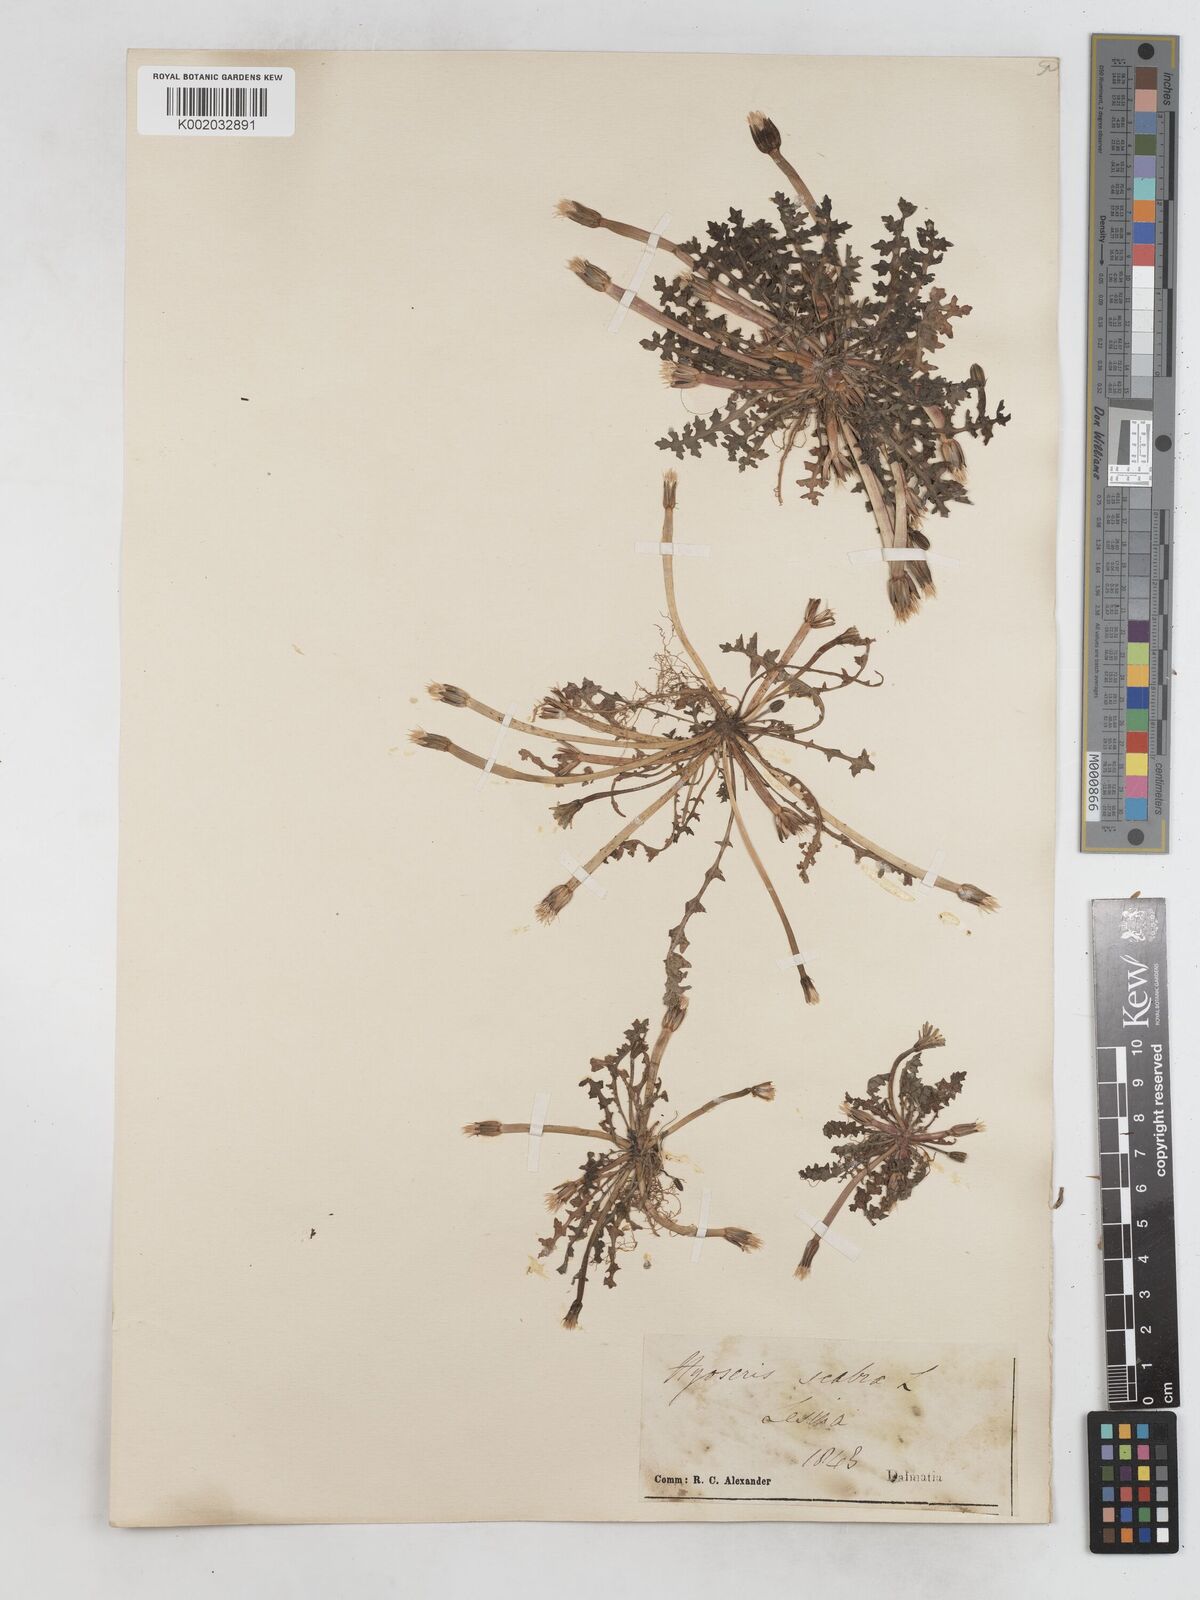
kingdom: Plantae
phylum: Tracheophyta
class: Magnoliopsida
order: Asterales
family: Asteraceae
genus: Hyoseris
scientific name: Hyoseris scabra
